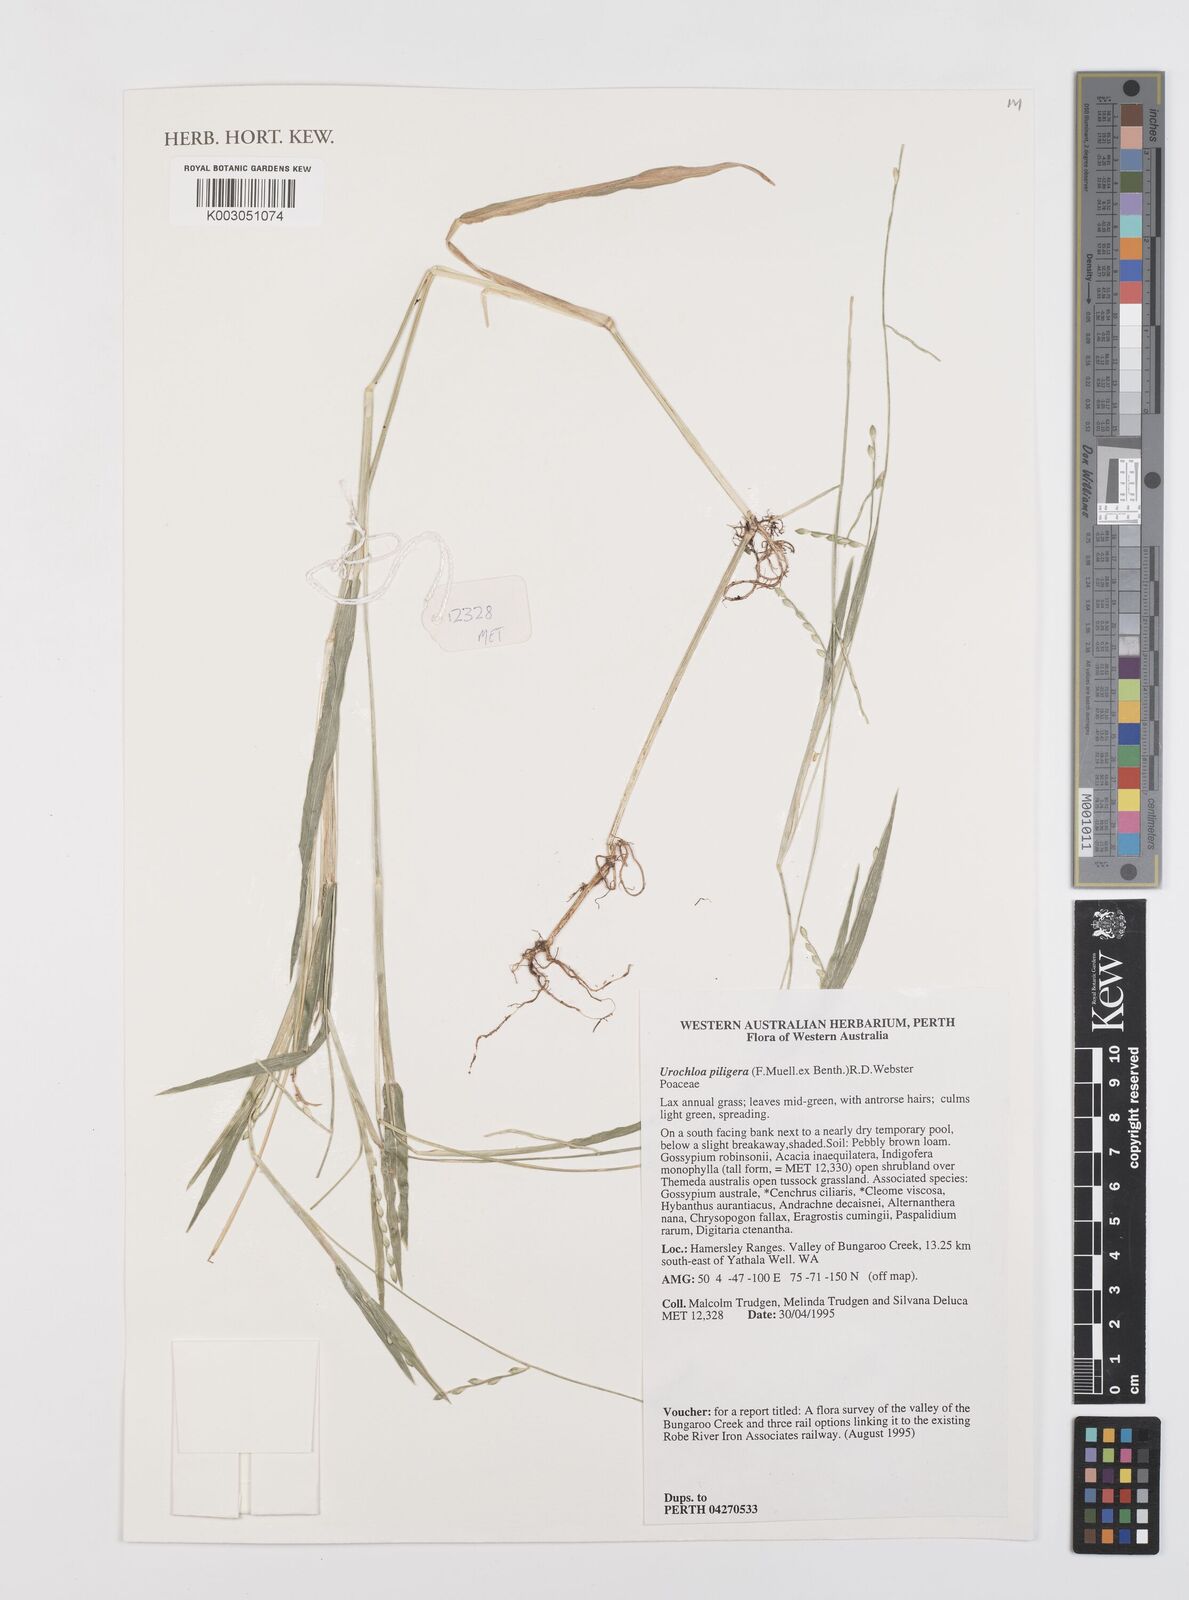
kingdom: Plantae
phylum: Tracheophyta
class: Liliopsida
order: Poales
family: Poaceae
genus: Urochloa
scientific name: Urochloa piligera
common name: Wattle signalgrass
